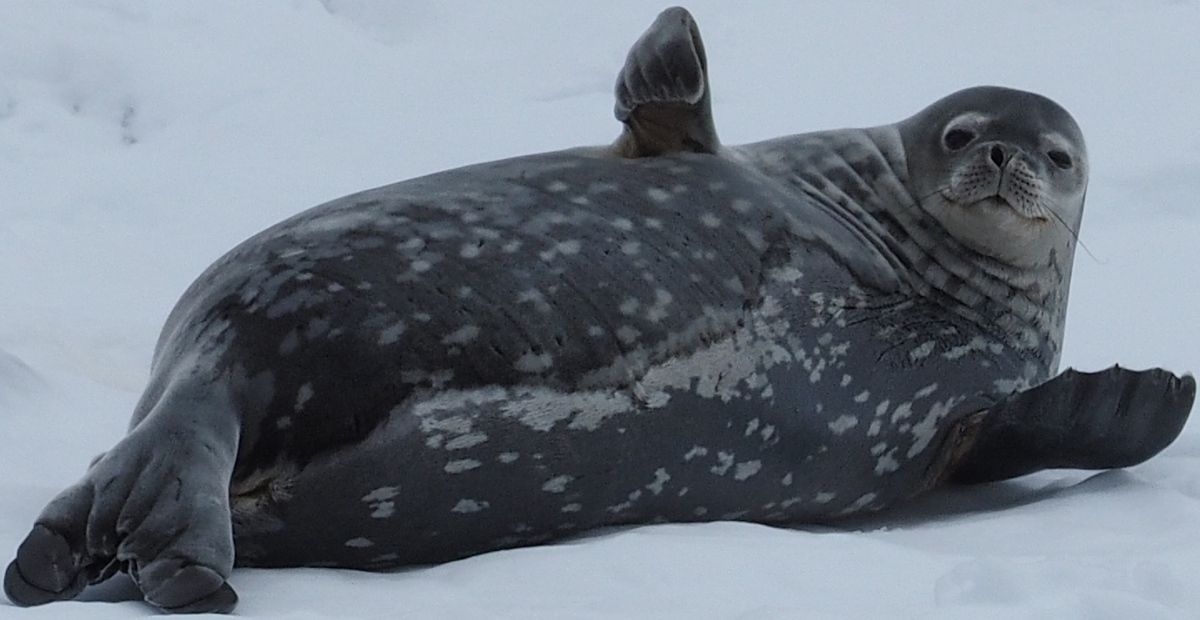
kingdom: Animalia
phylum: Chordata
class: Mammalia
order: Carnivora
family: Phocidae
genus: Leptonychotes
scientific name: Leptonychotes weddellii
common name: Weddell Seal
